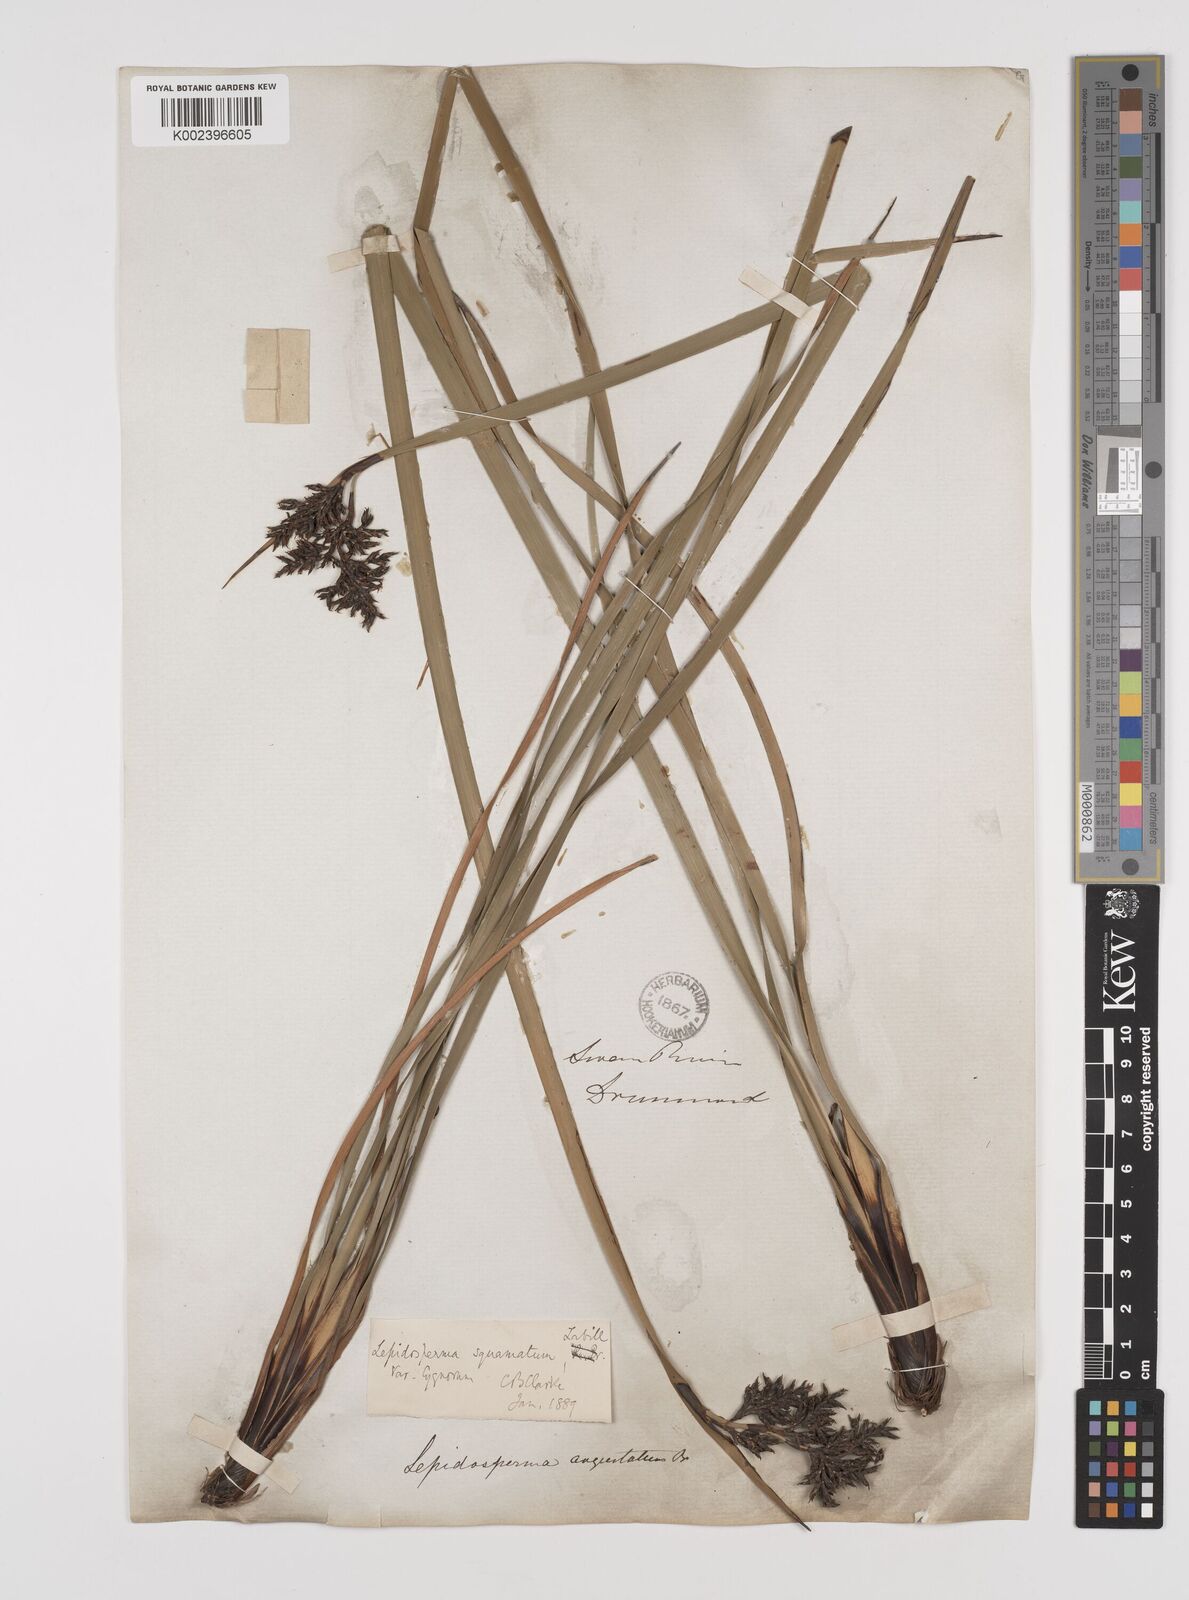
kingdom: Plantae
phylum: Tracheophyta
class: Liliopsida
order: Poales
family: Cyperaceae
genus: Lepidosperma
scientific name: Lepidosperma angustatum
